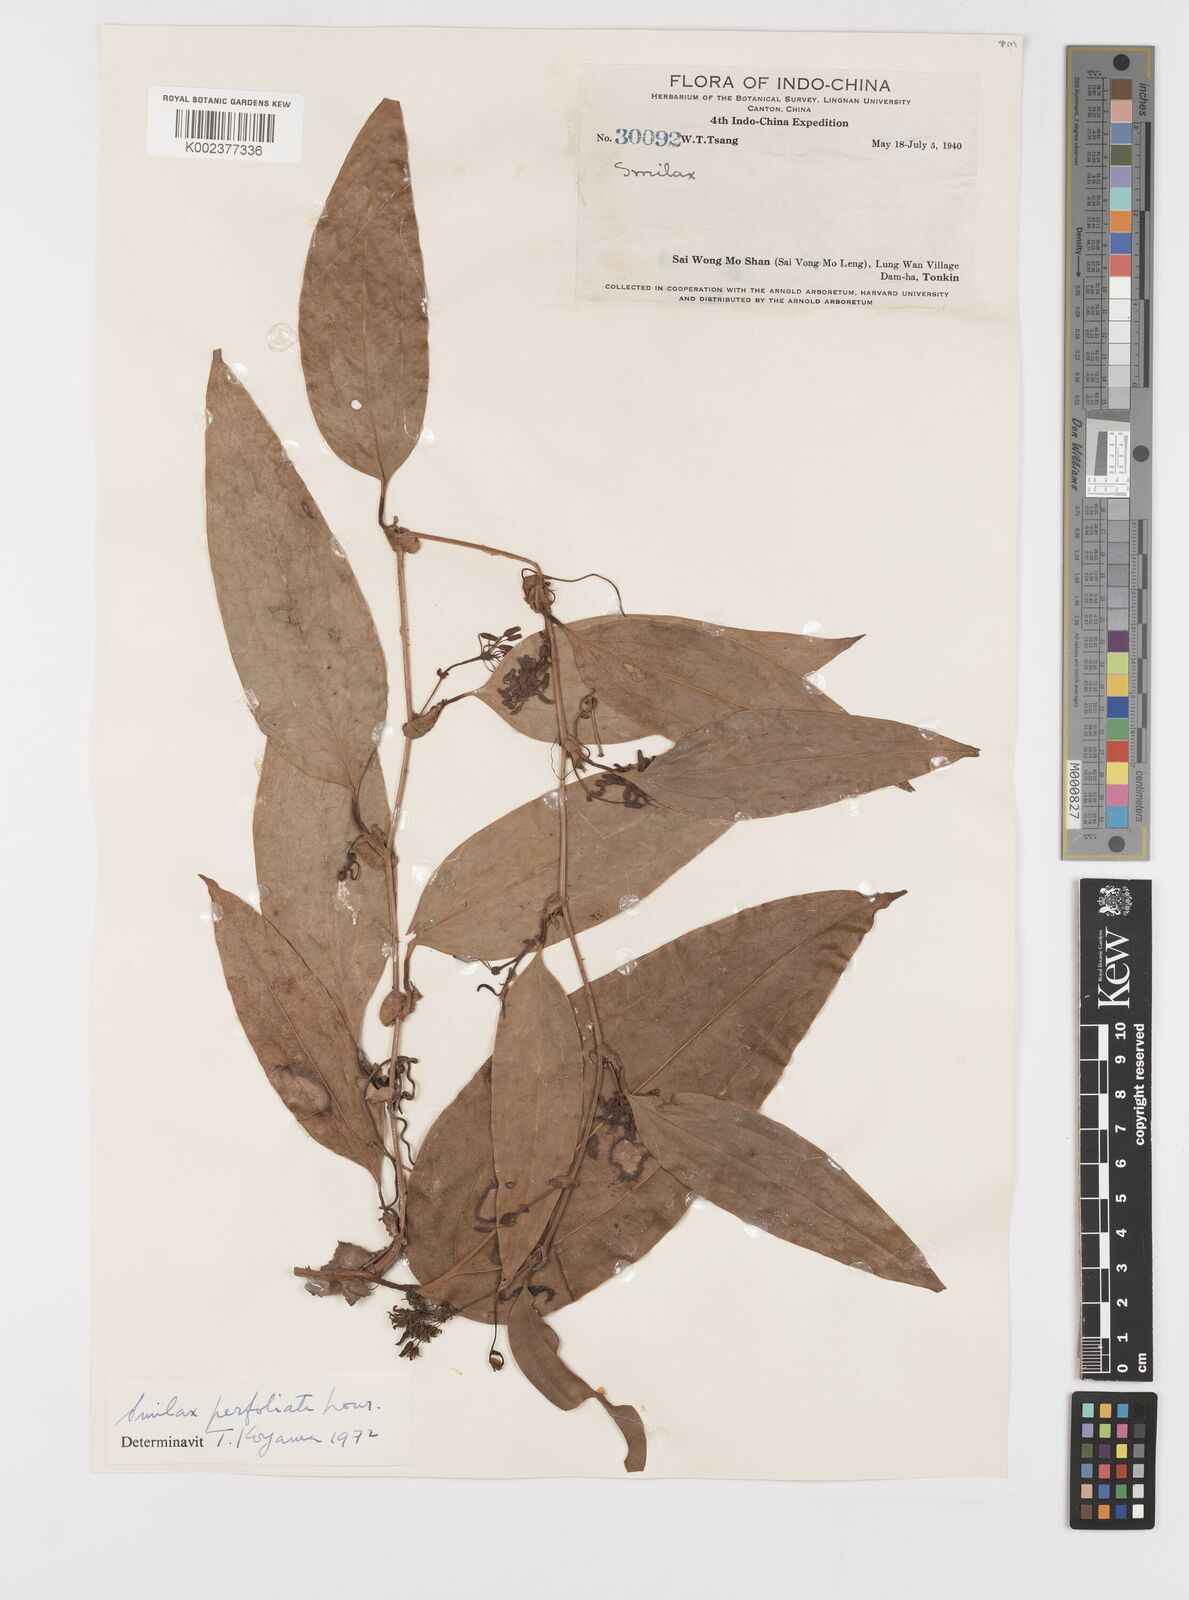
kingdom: Plantae
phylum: Tracheophyta
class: Liliopsida
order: Liliales
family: Smilacaceae
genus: Smilax
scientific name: Smilax perfoliata
